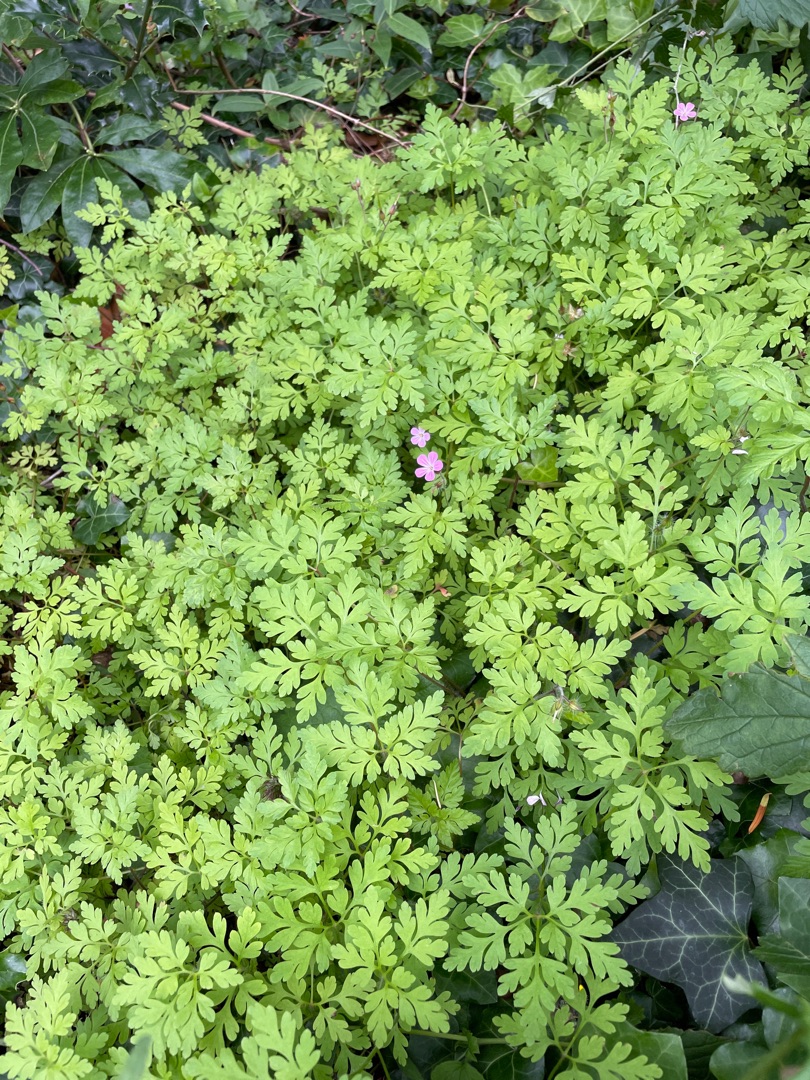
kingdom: Plantae
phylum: Tracheophyta
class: Magnoliopsida
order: Geraniales
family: Geraniaceae
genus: Geranium
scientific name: Geranium robertianum
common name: Stinkende storkenæb
